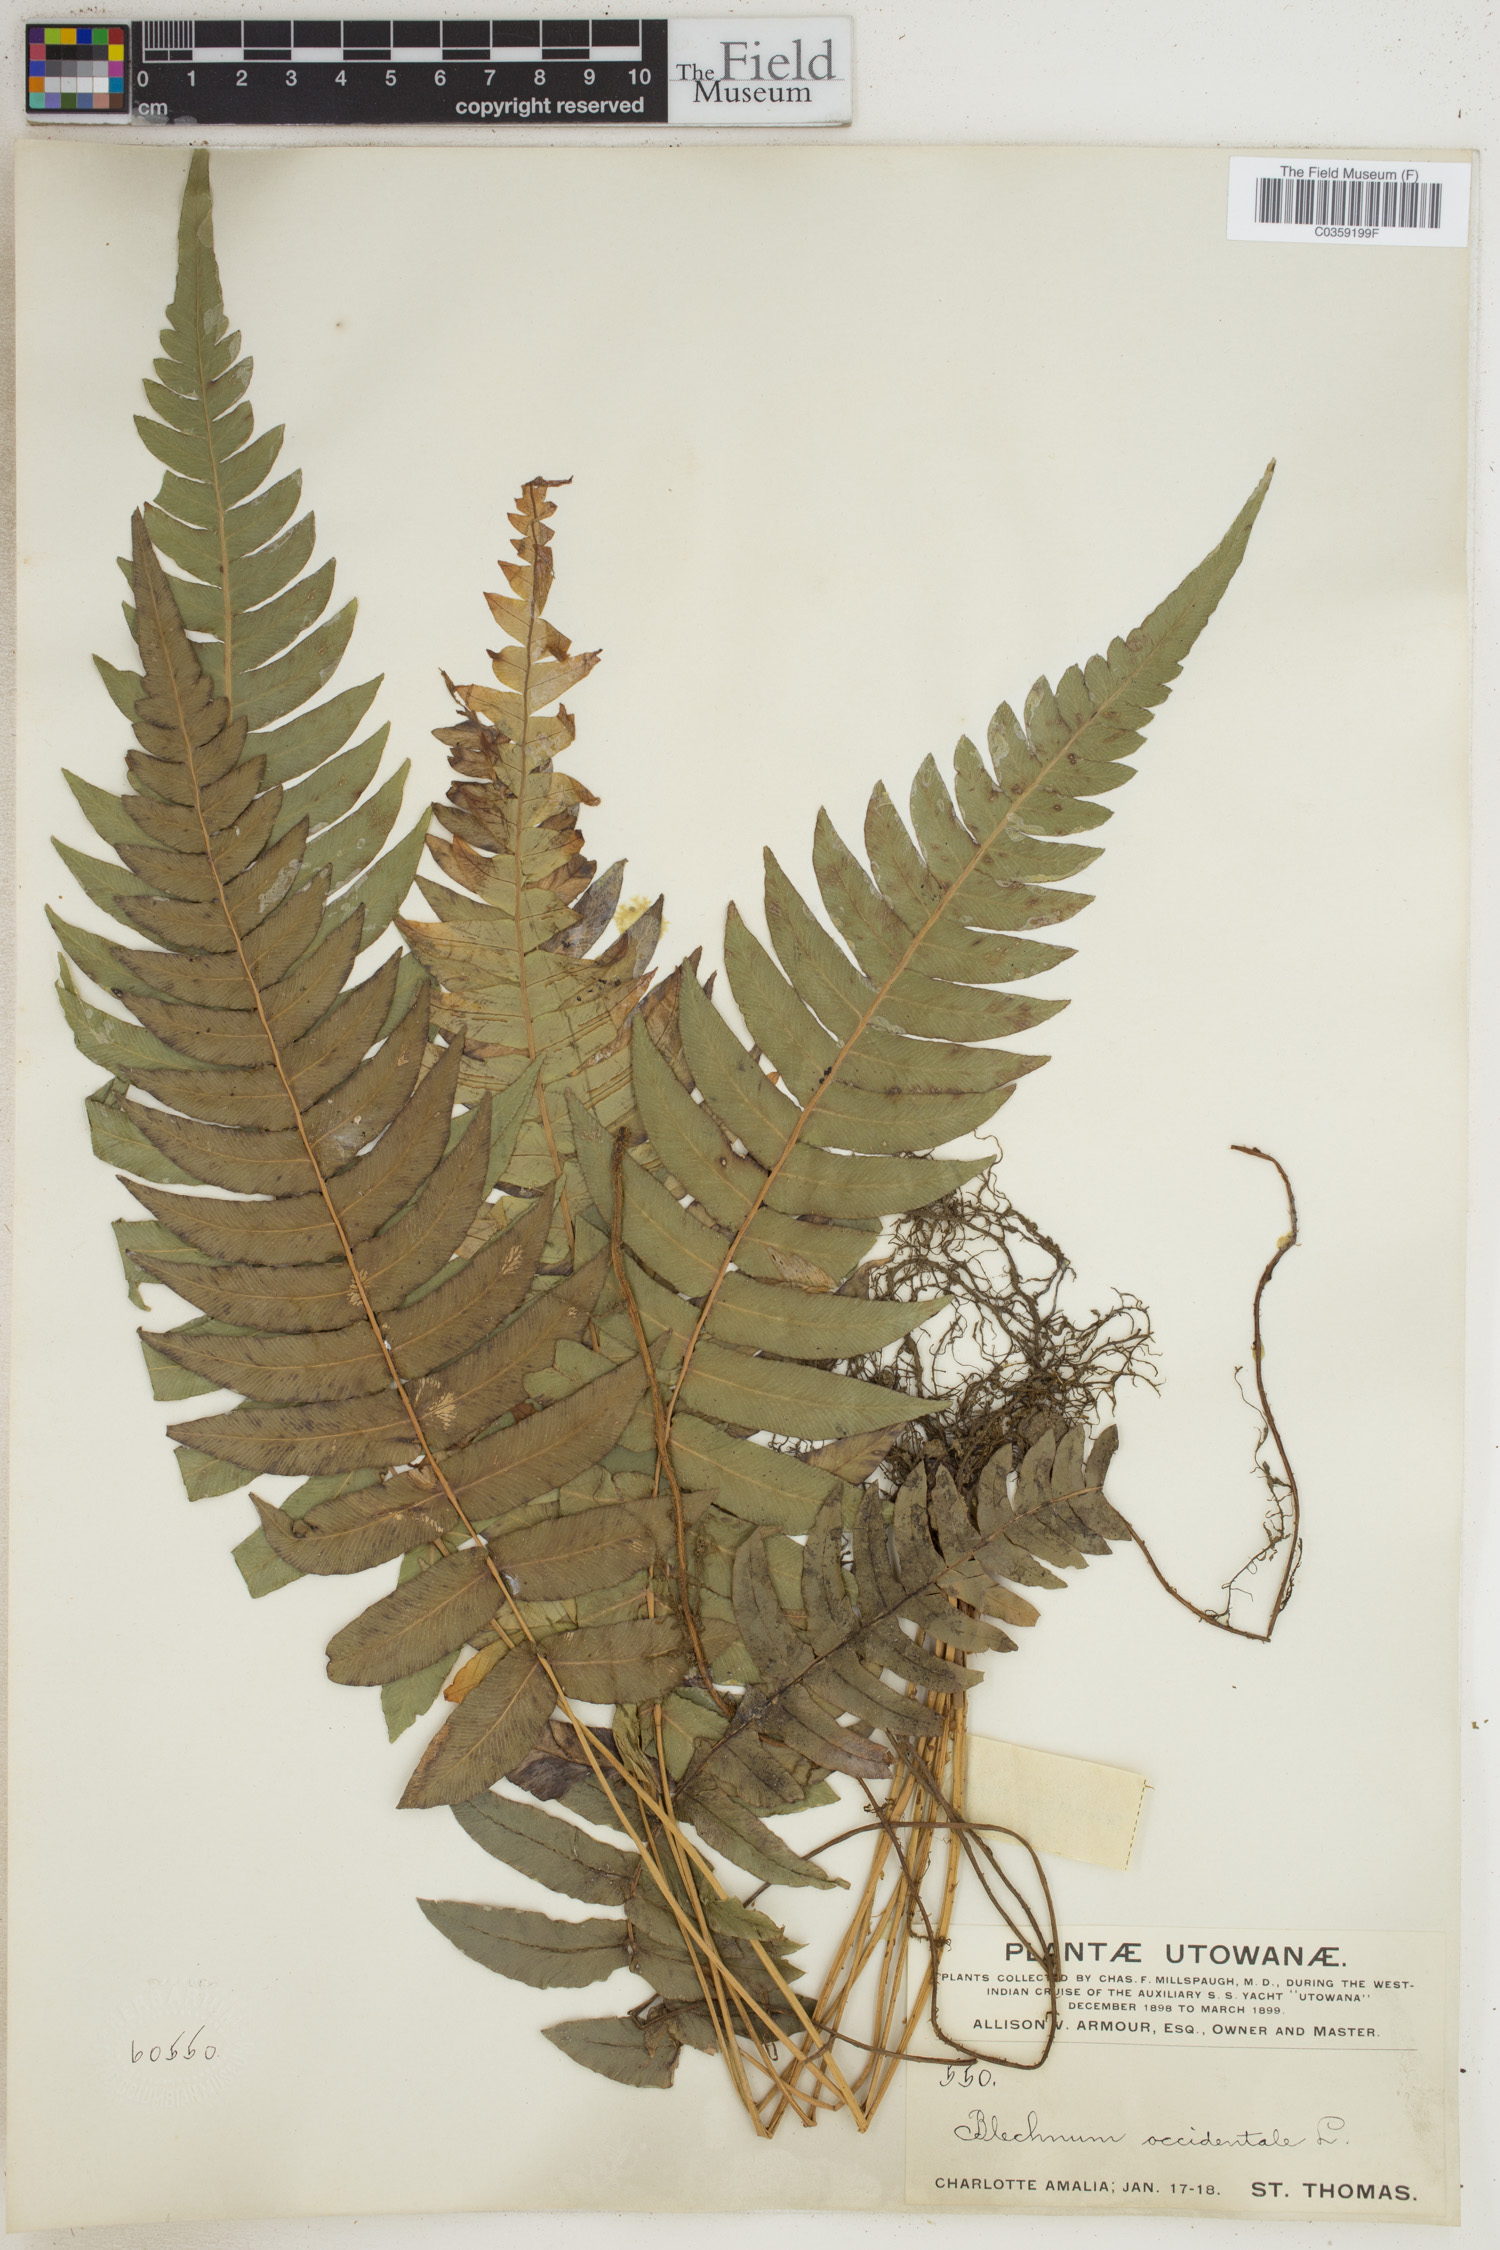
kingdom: Plantae
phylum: Tracheophyta
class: Polypodiopsida
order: Polypodiales
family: Blechnaceae
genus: Blechnum
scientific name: Blechnum occidentale
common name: Hammock fern
